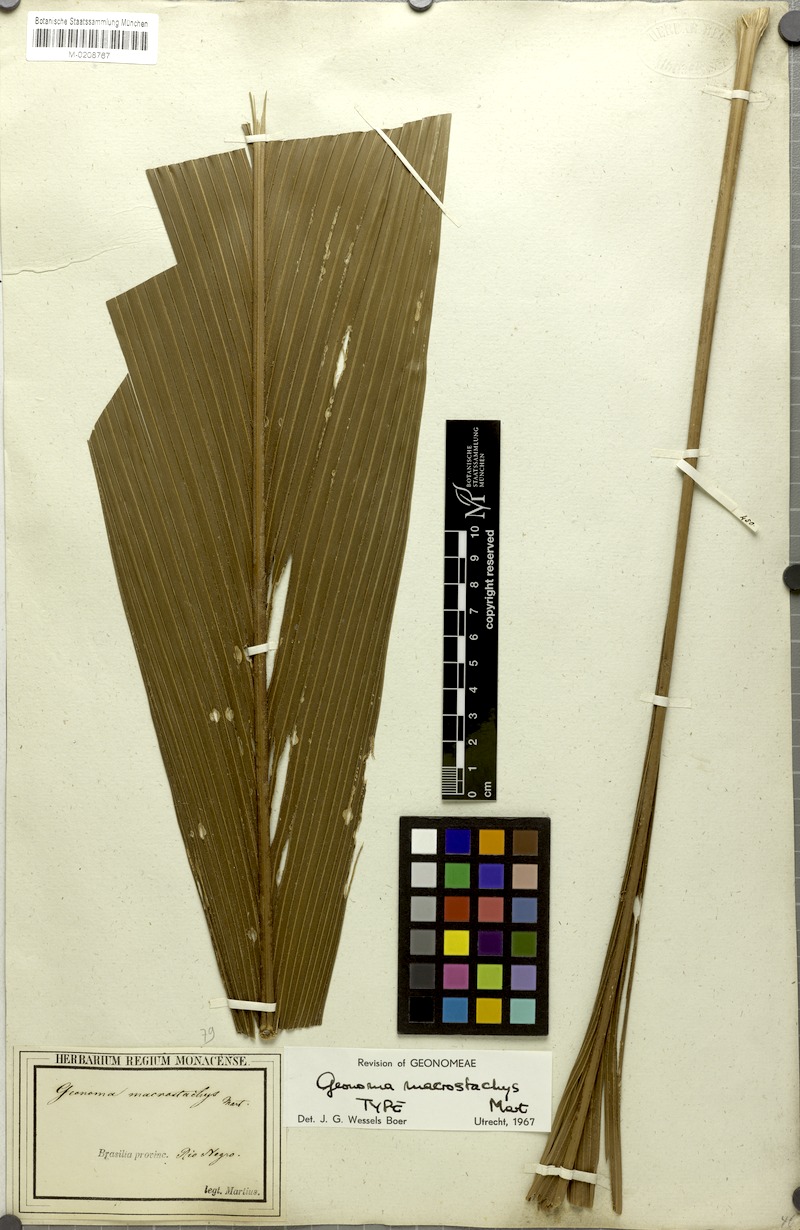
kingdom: Plantae
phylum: Tracheophyta
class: Liliopsida
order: Arecales
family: Arecaceae
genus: Geonoma
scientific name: Geonoma macrostachys
